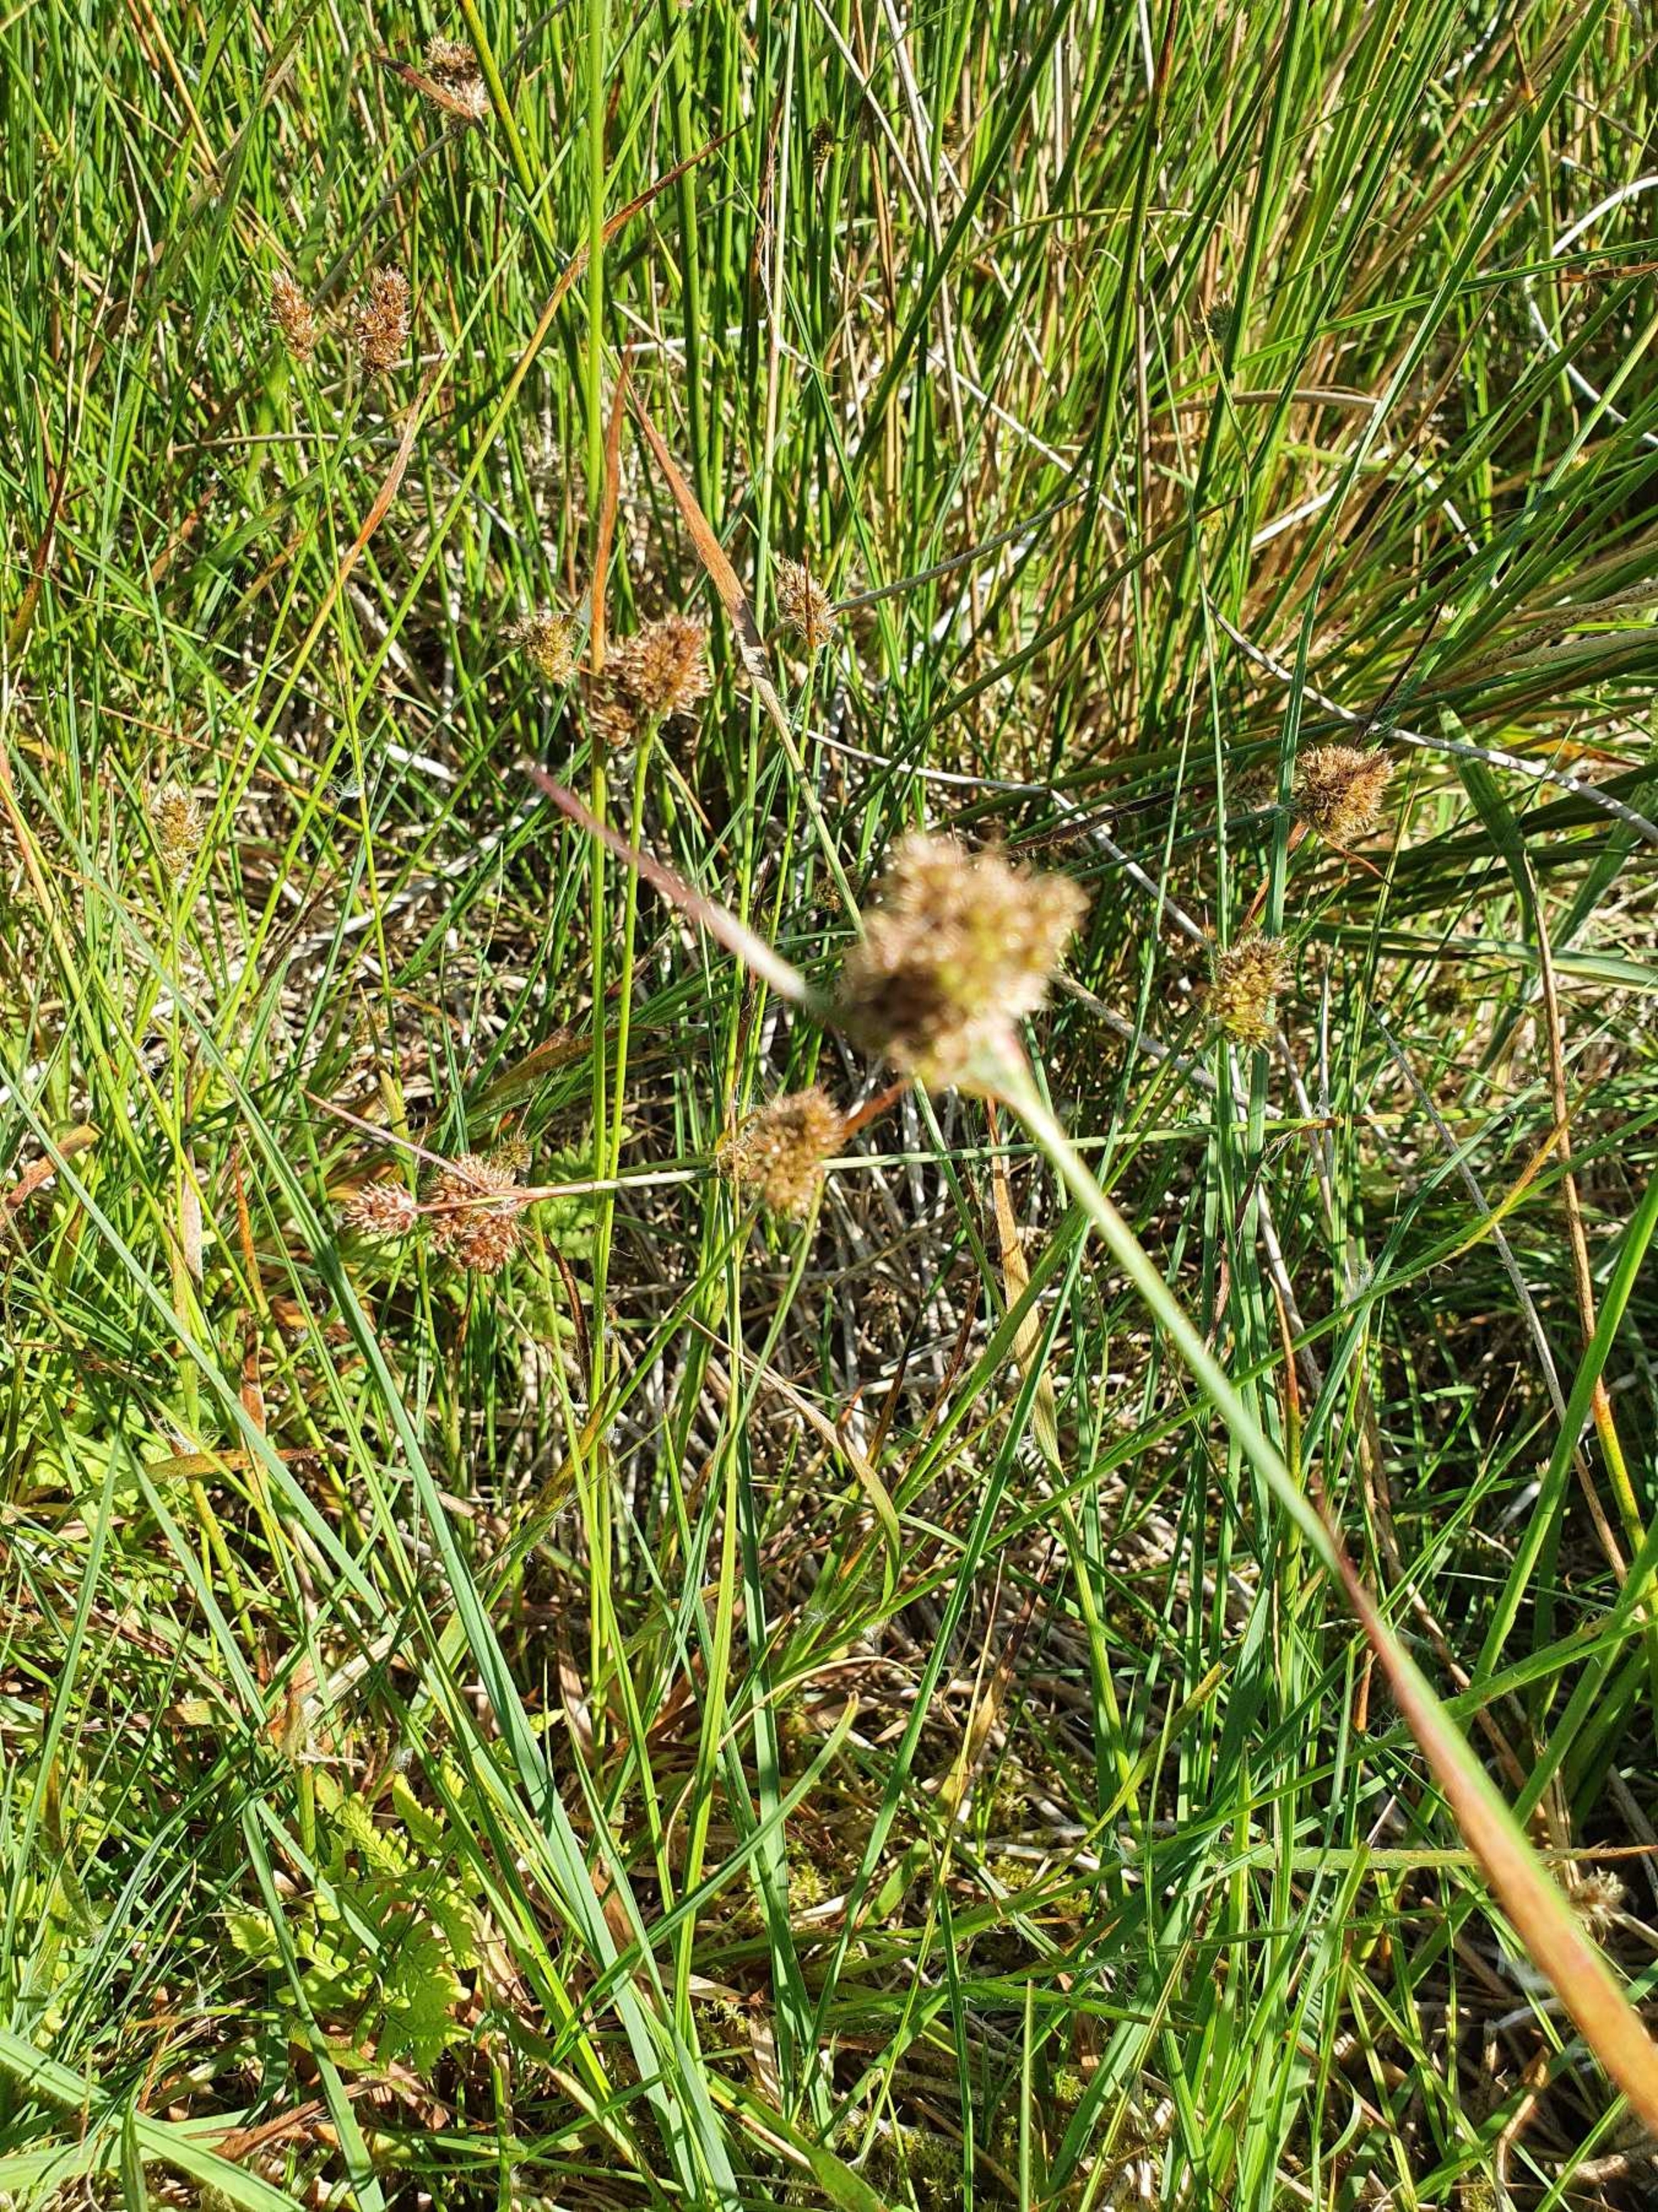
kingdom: Plantae
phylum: Tracheophyta
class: Liliopsida
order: Poales
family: Juncaceae
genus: Luzula
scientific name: Luzula congesta
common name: Hoved-frytle
